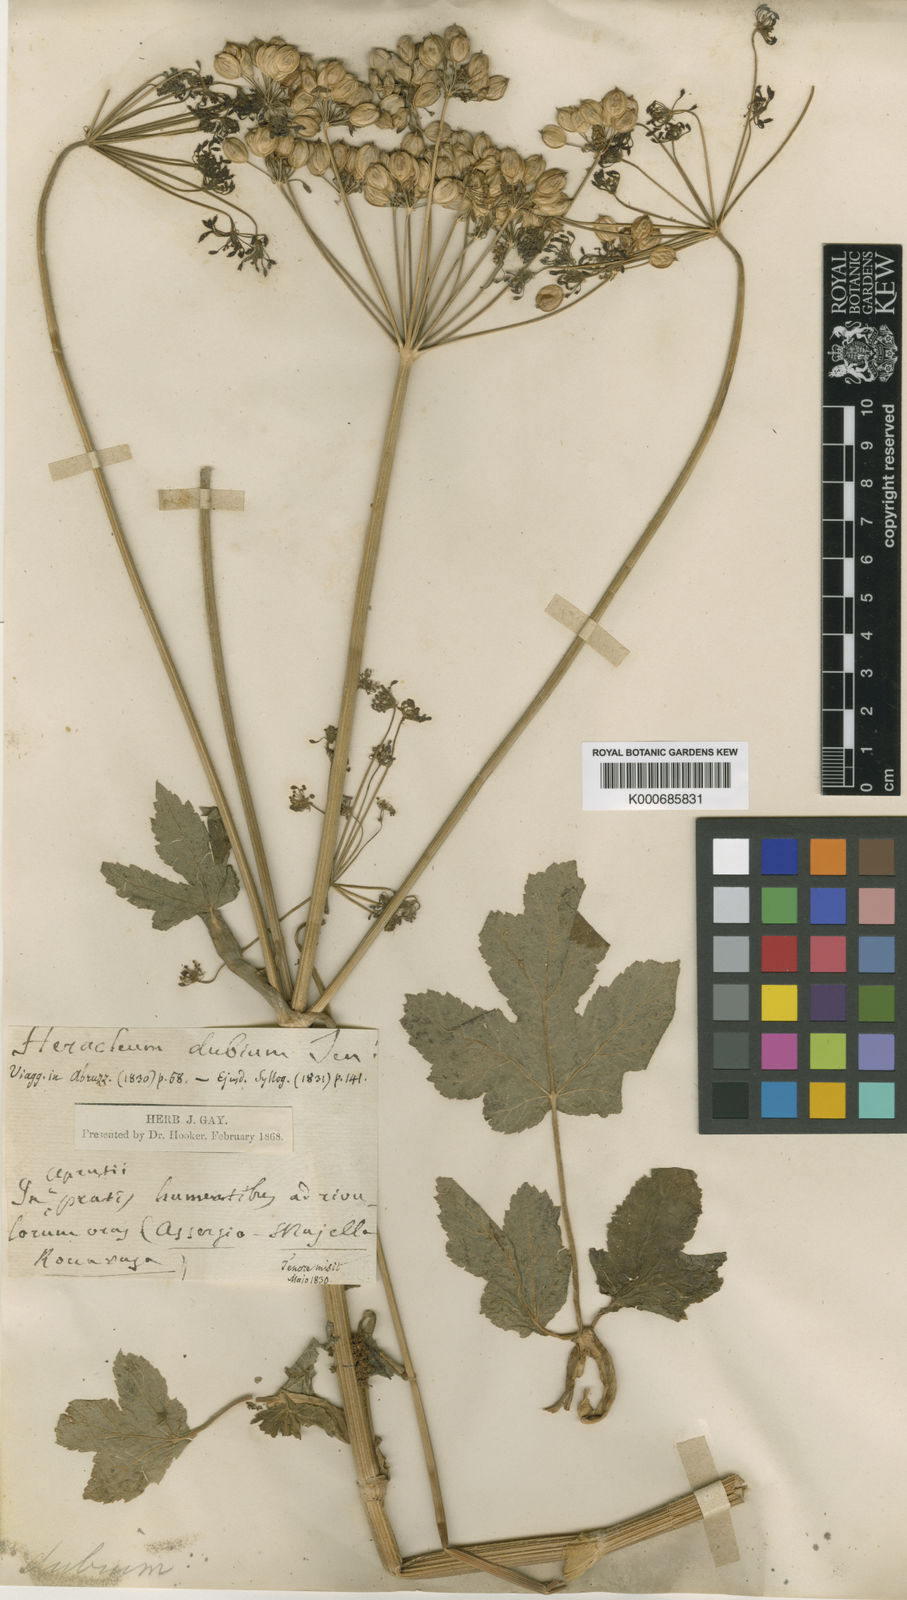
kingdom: Plantae
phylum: Tracheophyta
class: Magnoliopsida
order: Apiales
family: Apiaceae
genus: Heracleum
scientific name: Heracleum sphondylium
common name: Hogweed
